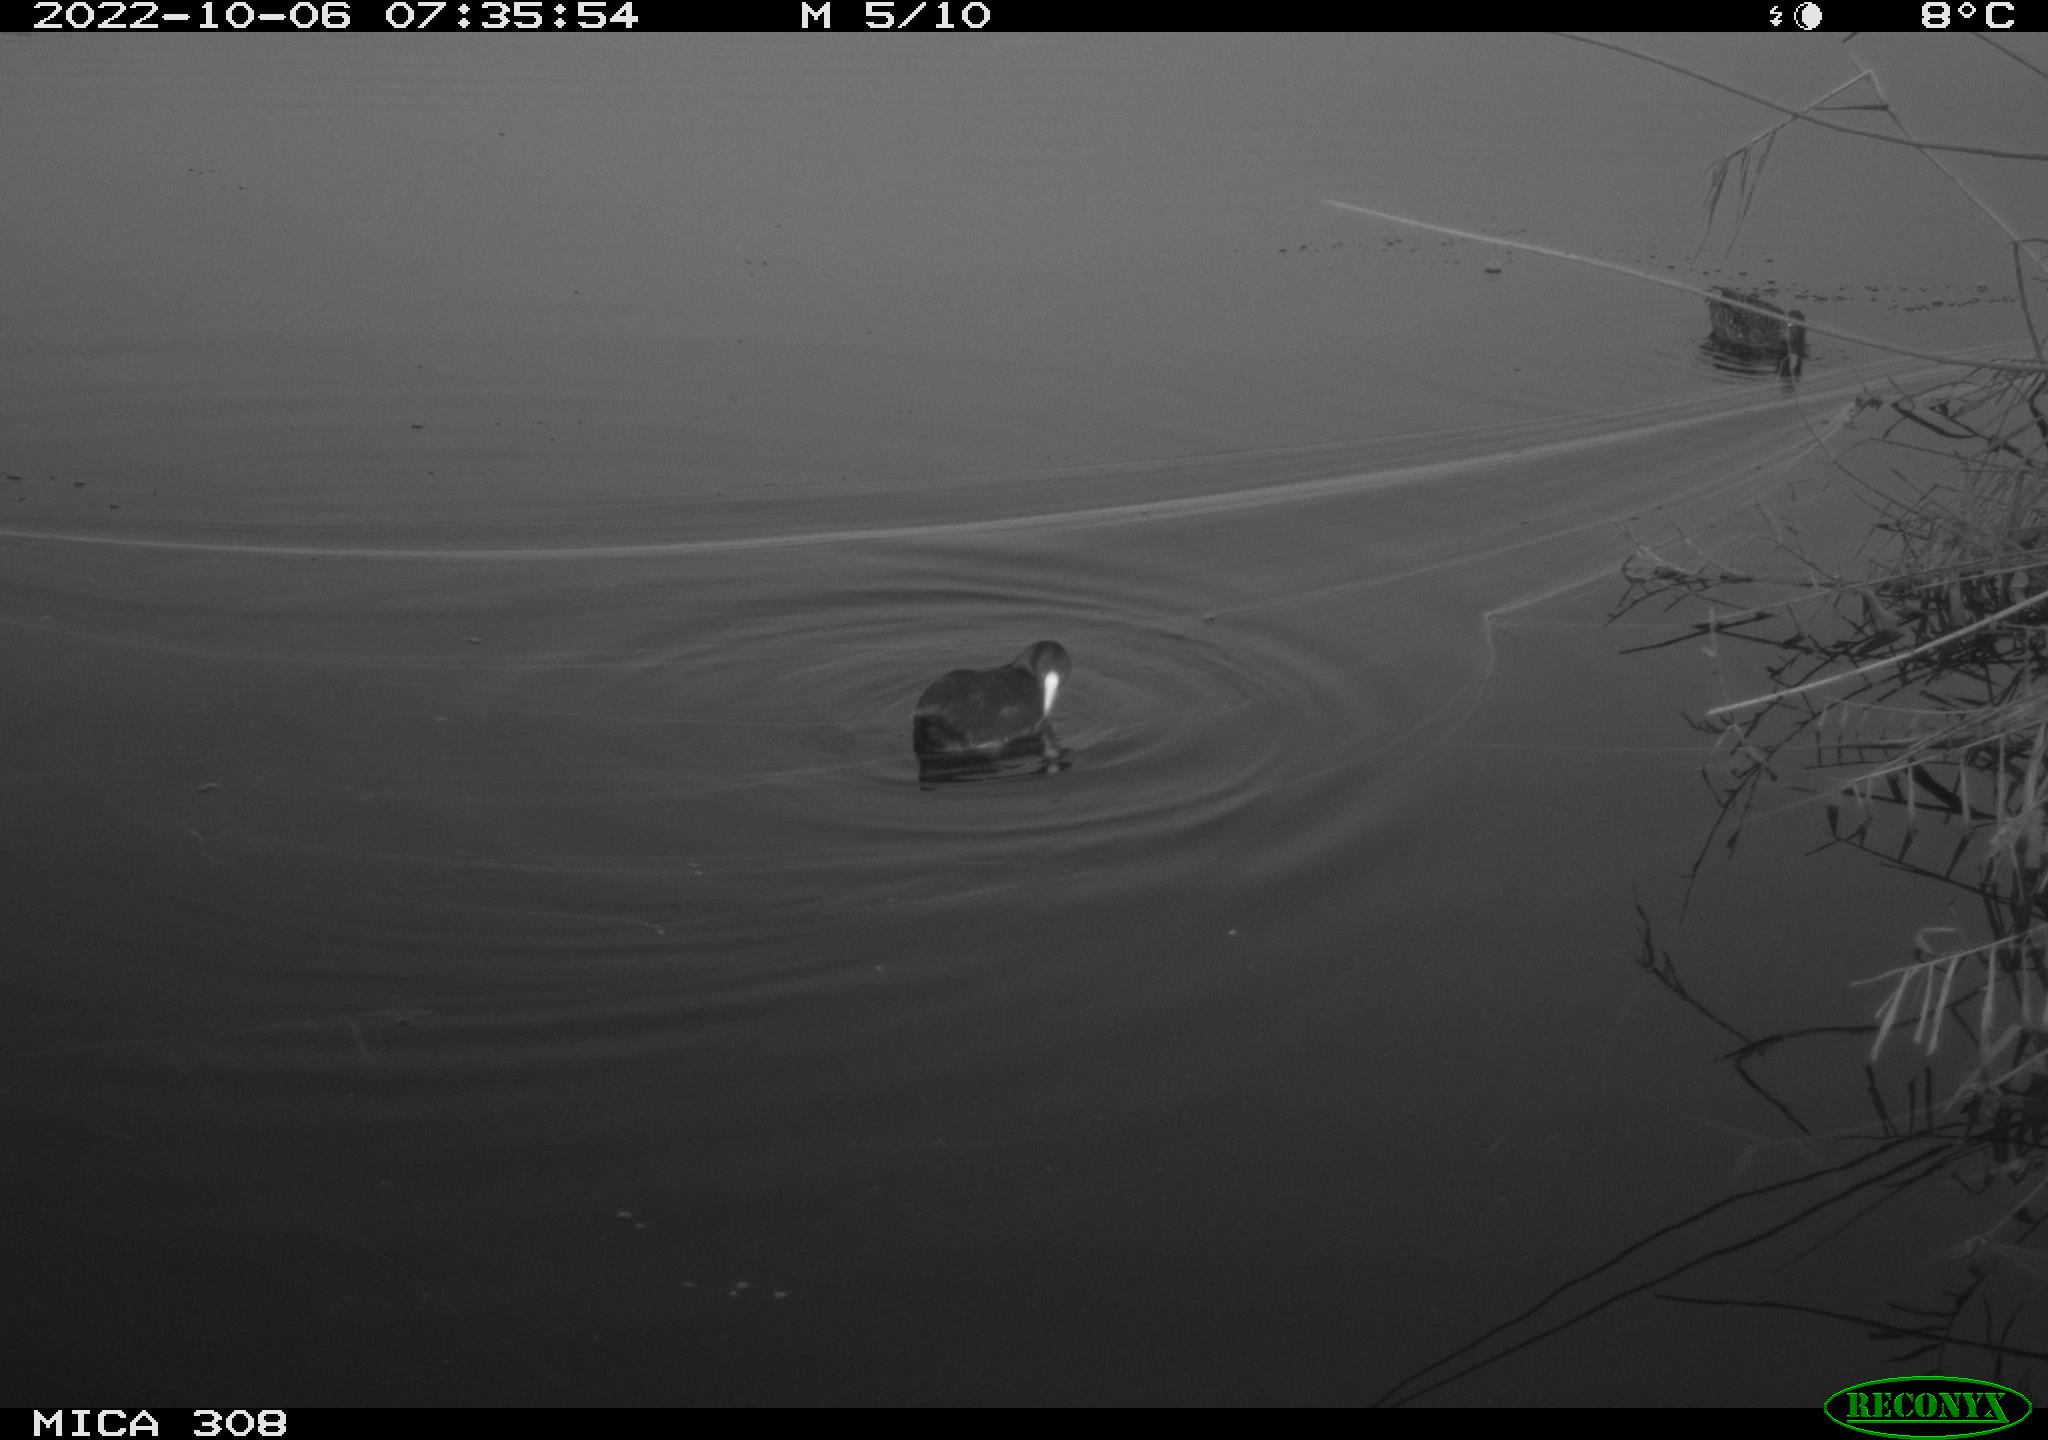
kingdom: Animalia
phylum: Chordata
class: Aves
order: Gruiformes
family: Rallidae
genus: Gallinula
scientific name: Gallinula chloropus
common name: Common moorhen
